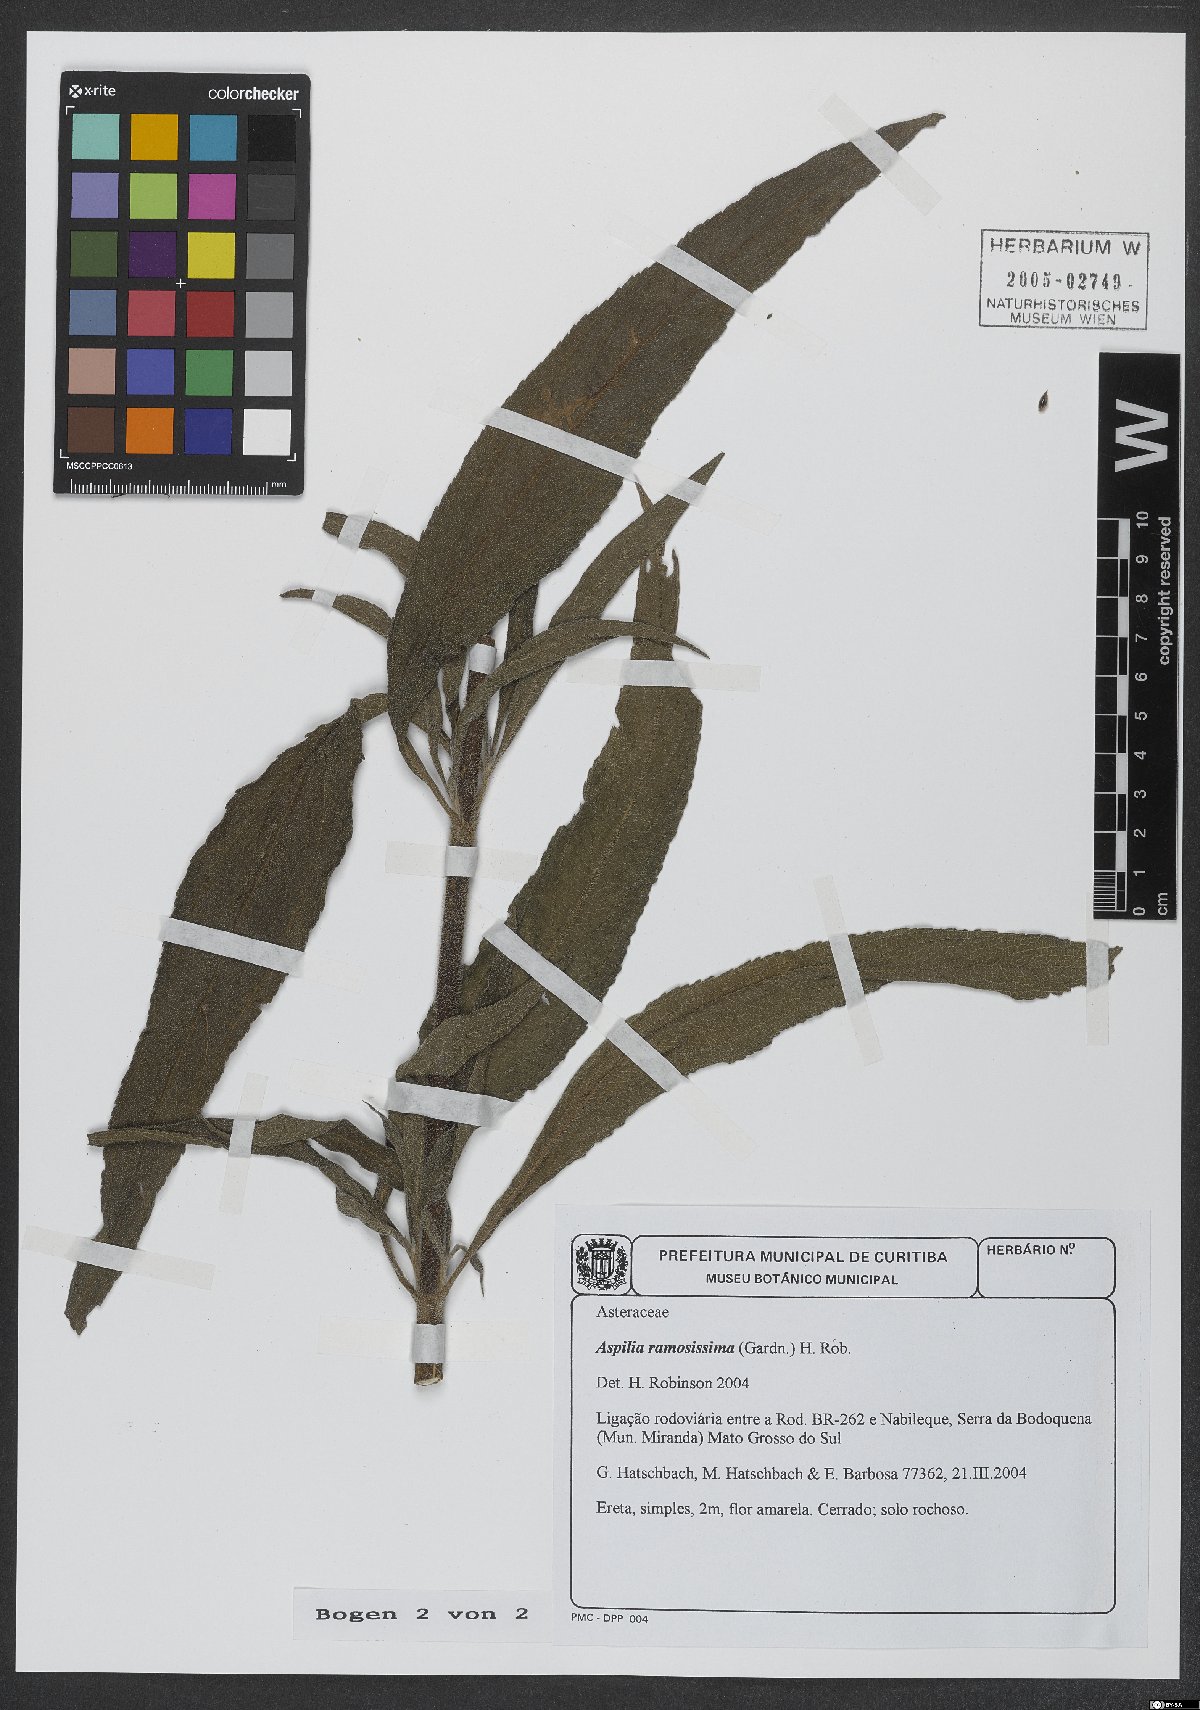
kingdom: Plantae
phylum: Tracheophyta
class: Magnoliopsida
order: Asterales
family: Asteraceae
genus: Aspilia
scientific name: Aspilia ramosissima
